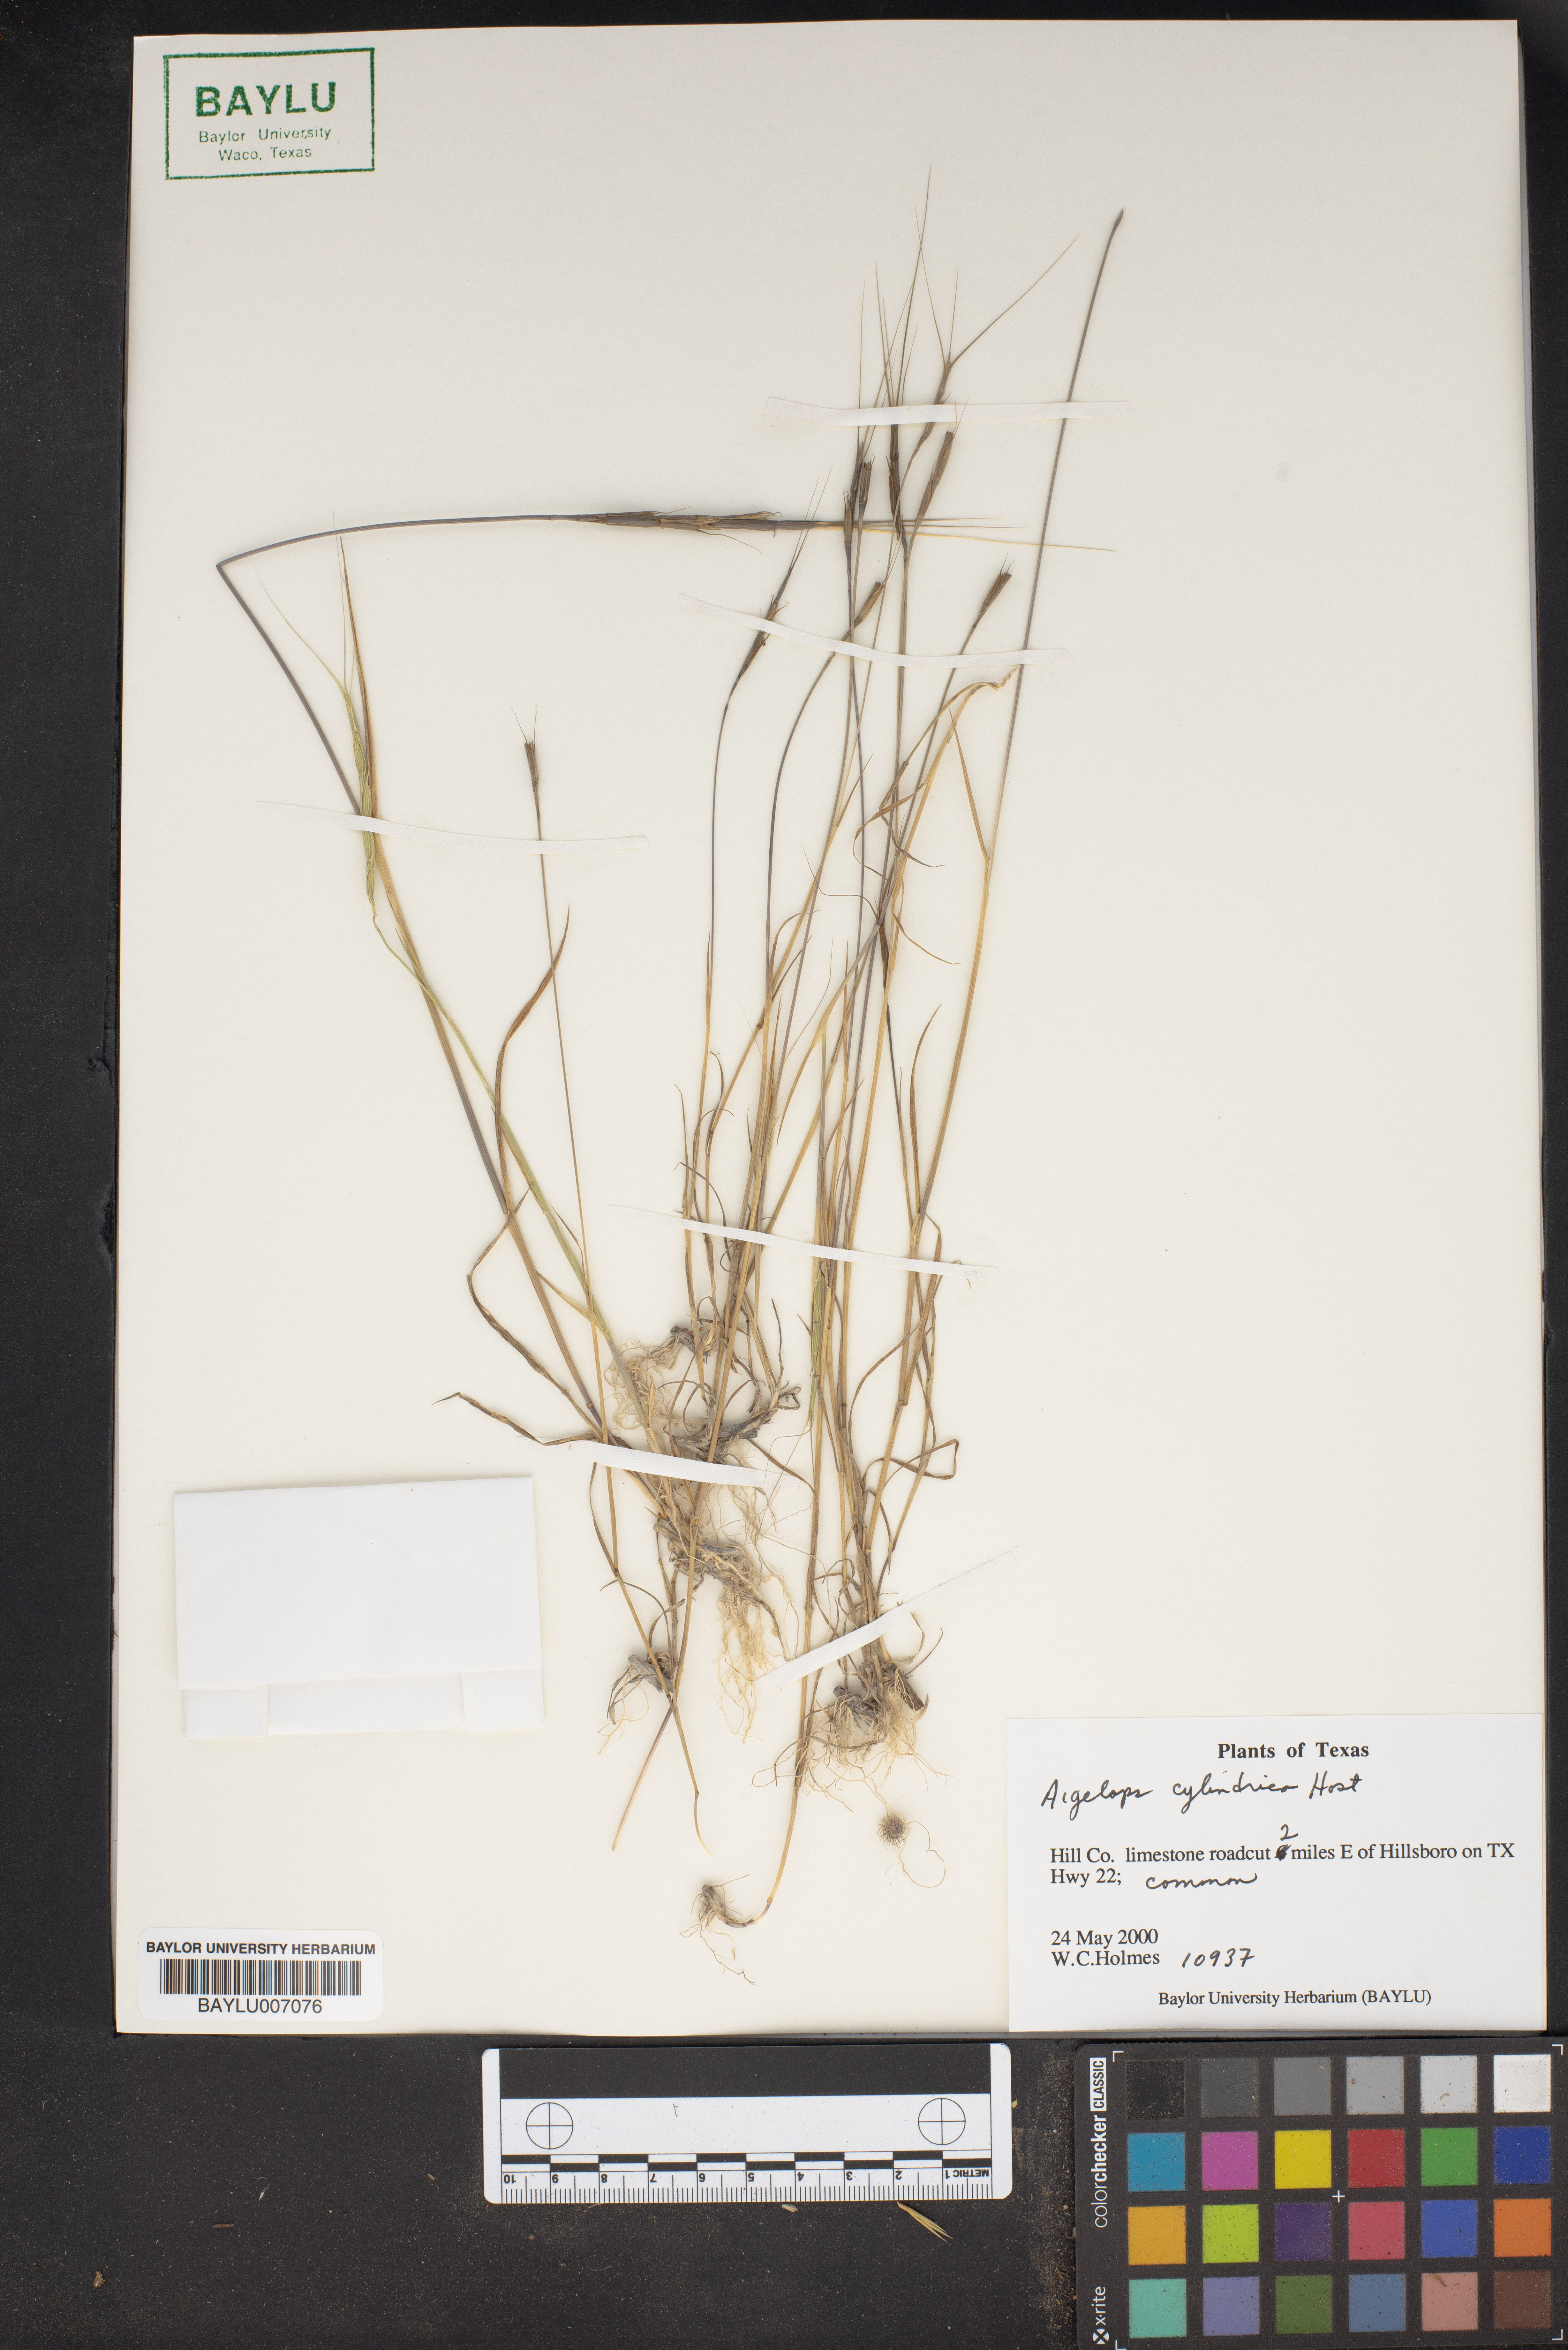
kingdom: Plantae
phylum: Tracheophyta
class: Liliopsida
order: Poales
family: Poaceae
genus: Aegilops
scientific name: Aegilops cylindrica
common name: Jointed goatgrass
